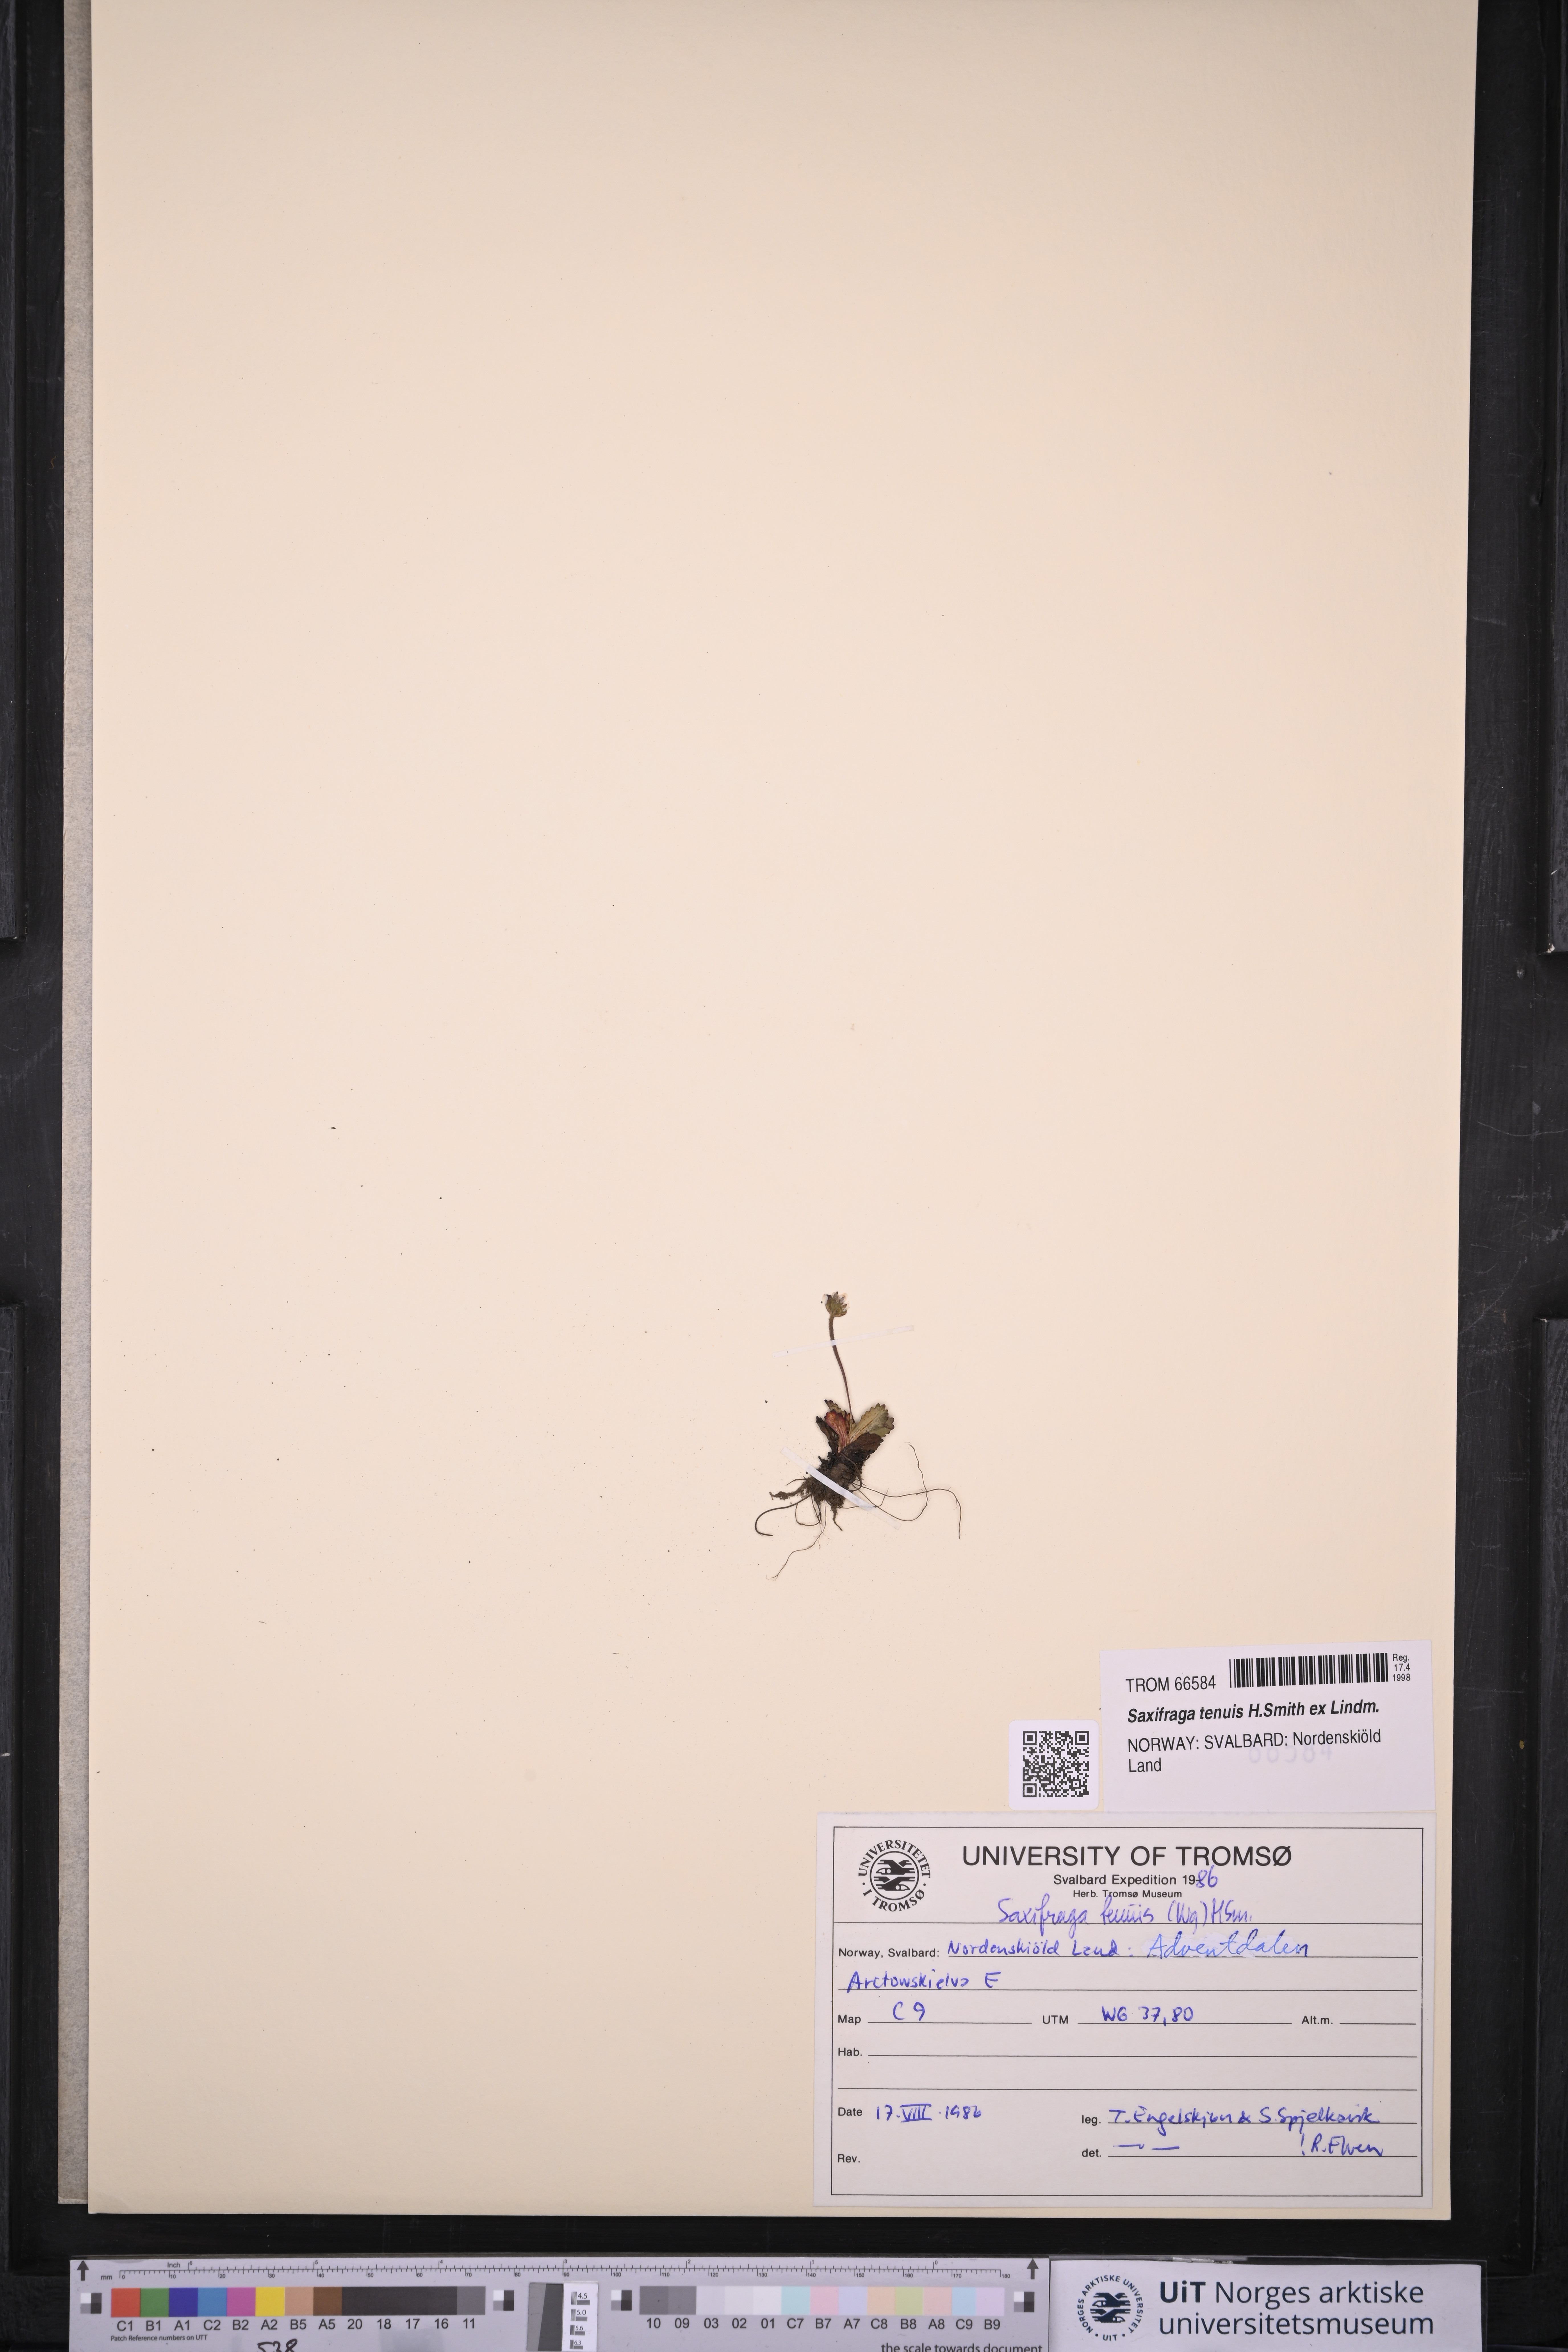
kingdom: Plantae
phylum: Tracheophyta
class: Magnoliopsida
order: Saxifragales
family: Saxifragaceae
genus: Micranthes
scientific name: Micranthes tenuis
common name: Ottertail pass saxifrage
